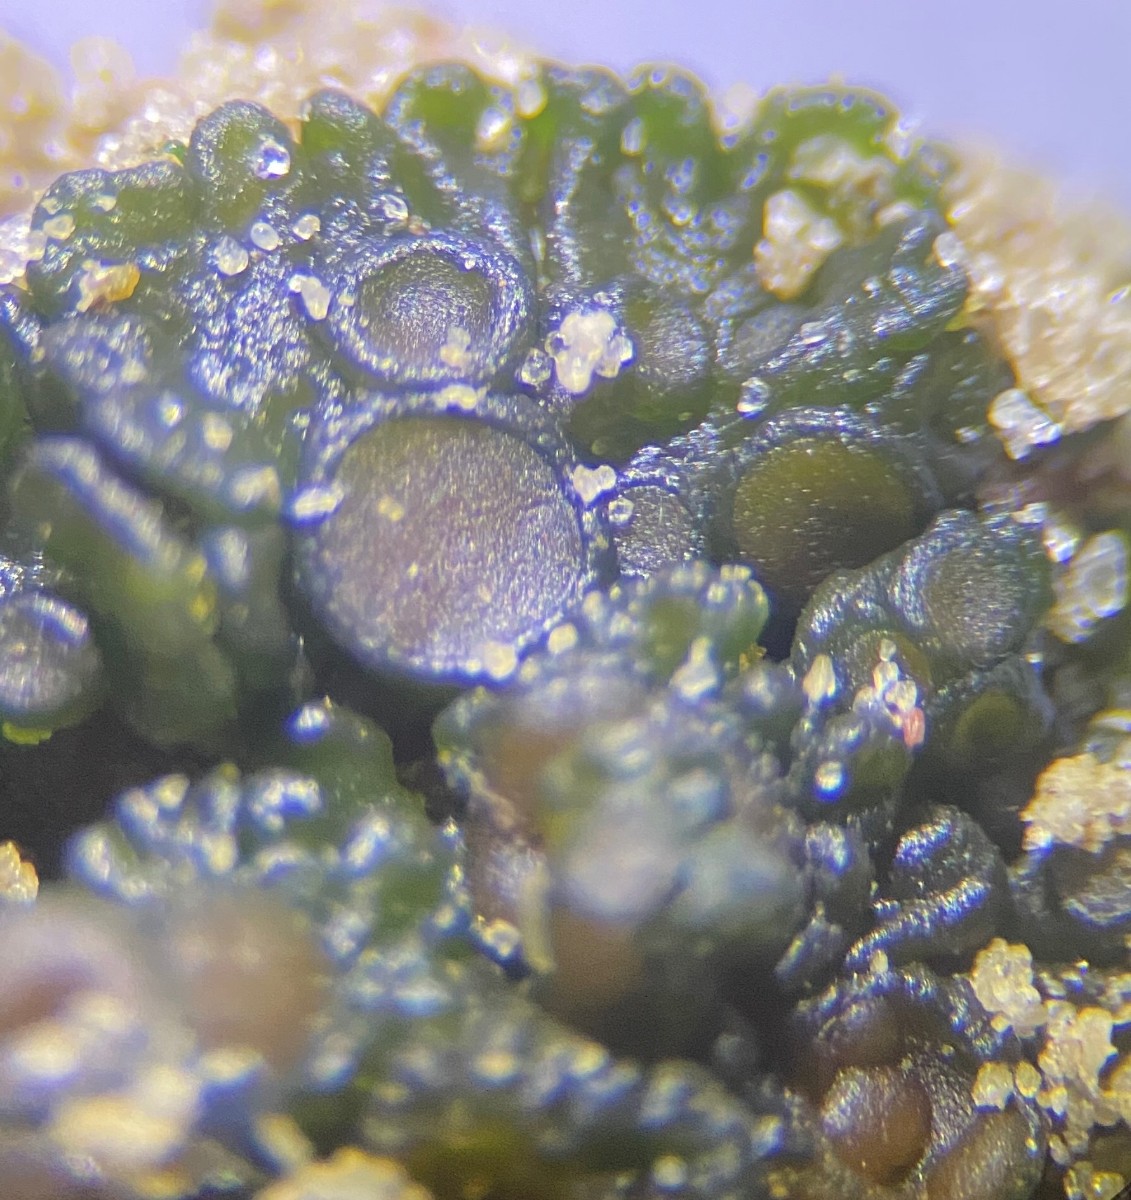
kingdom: Fungi
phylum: Ascomycota
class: Lecanoromycetes
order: Peltigerales
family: Collemataceae
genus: Enchylium
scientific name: Enchylium tenax
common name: tyk bævrelav
